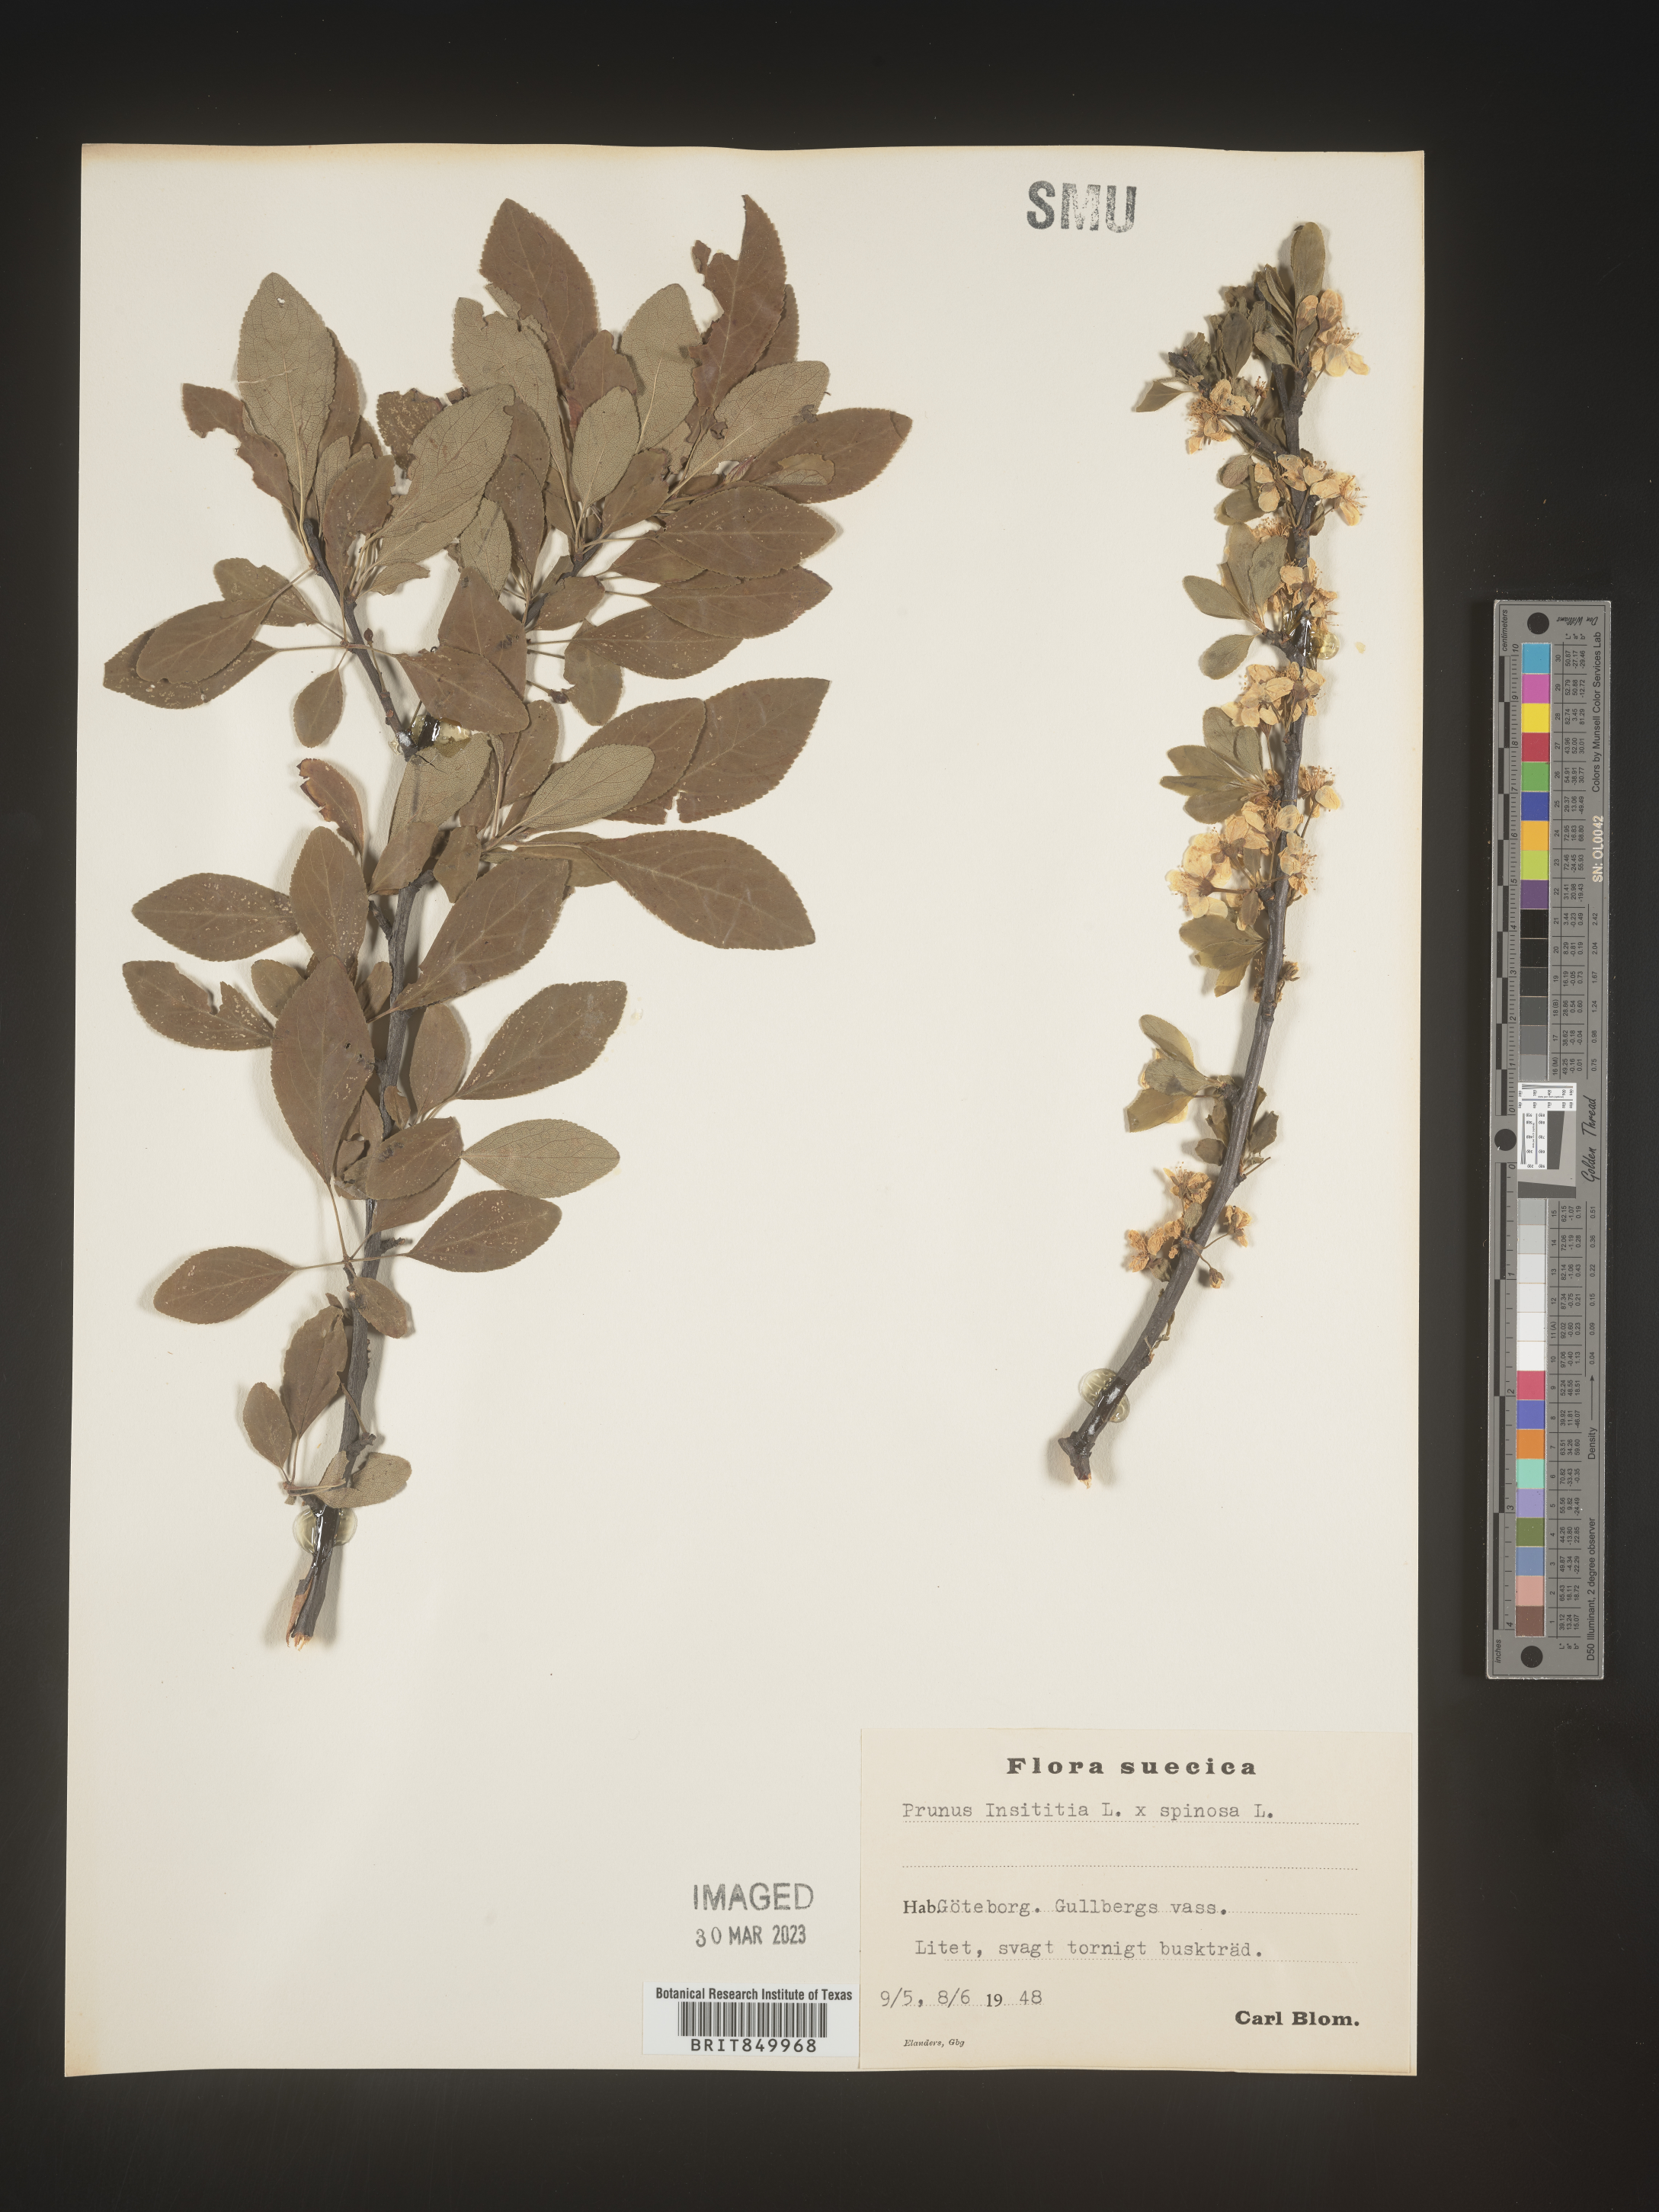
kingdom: Plantae
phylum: Tracheophyta
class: Magnoliopsida
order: Rosales
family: Rosaceae
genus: Prunus
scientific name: Prunus
